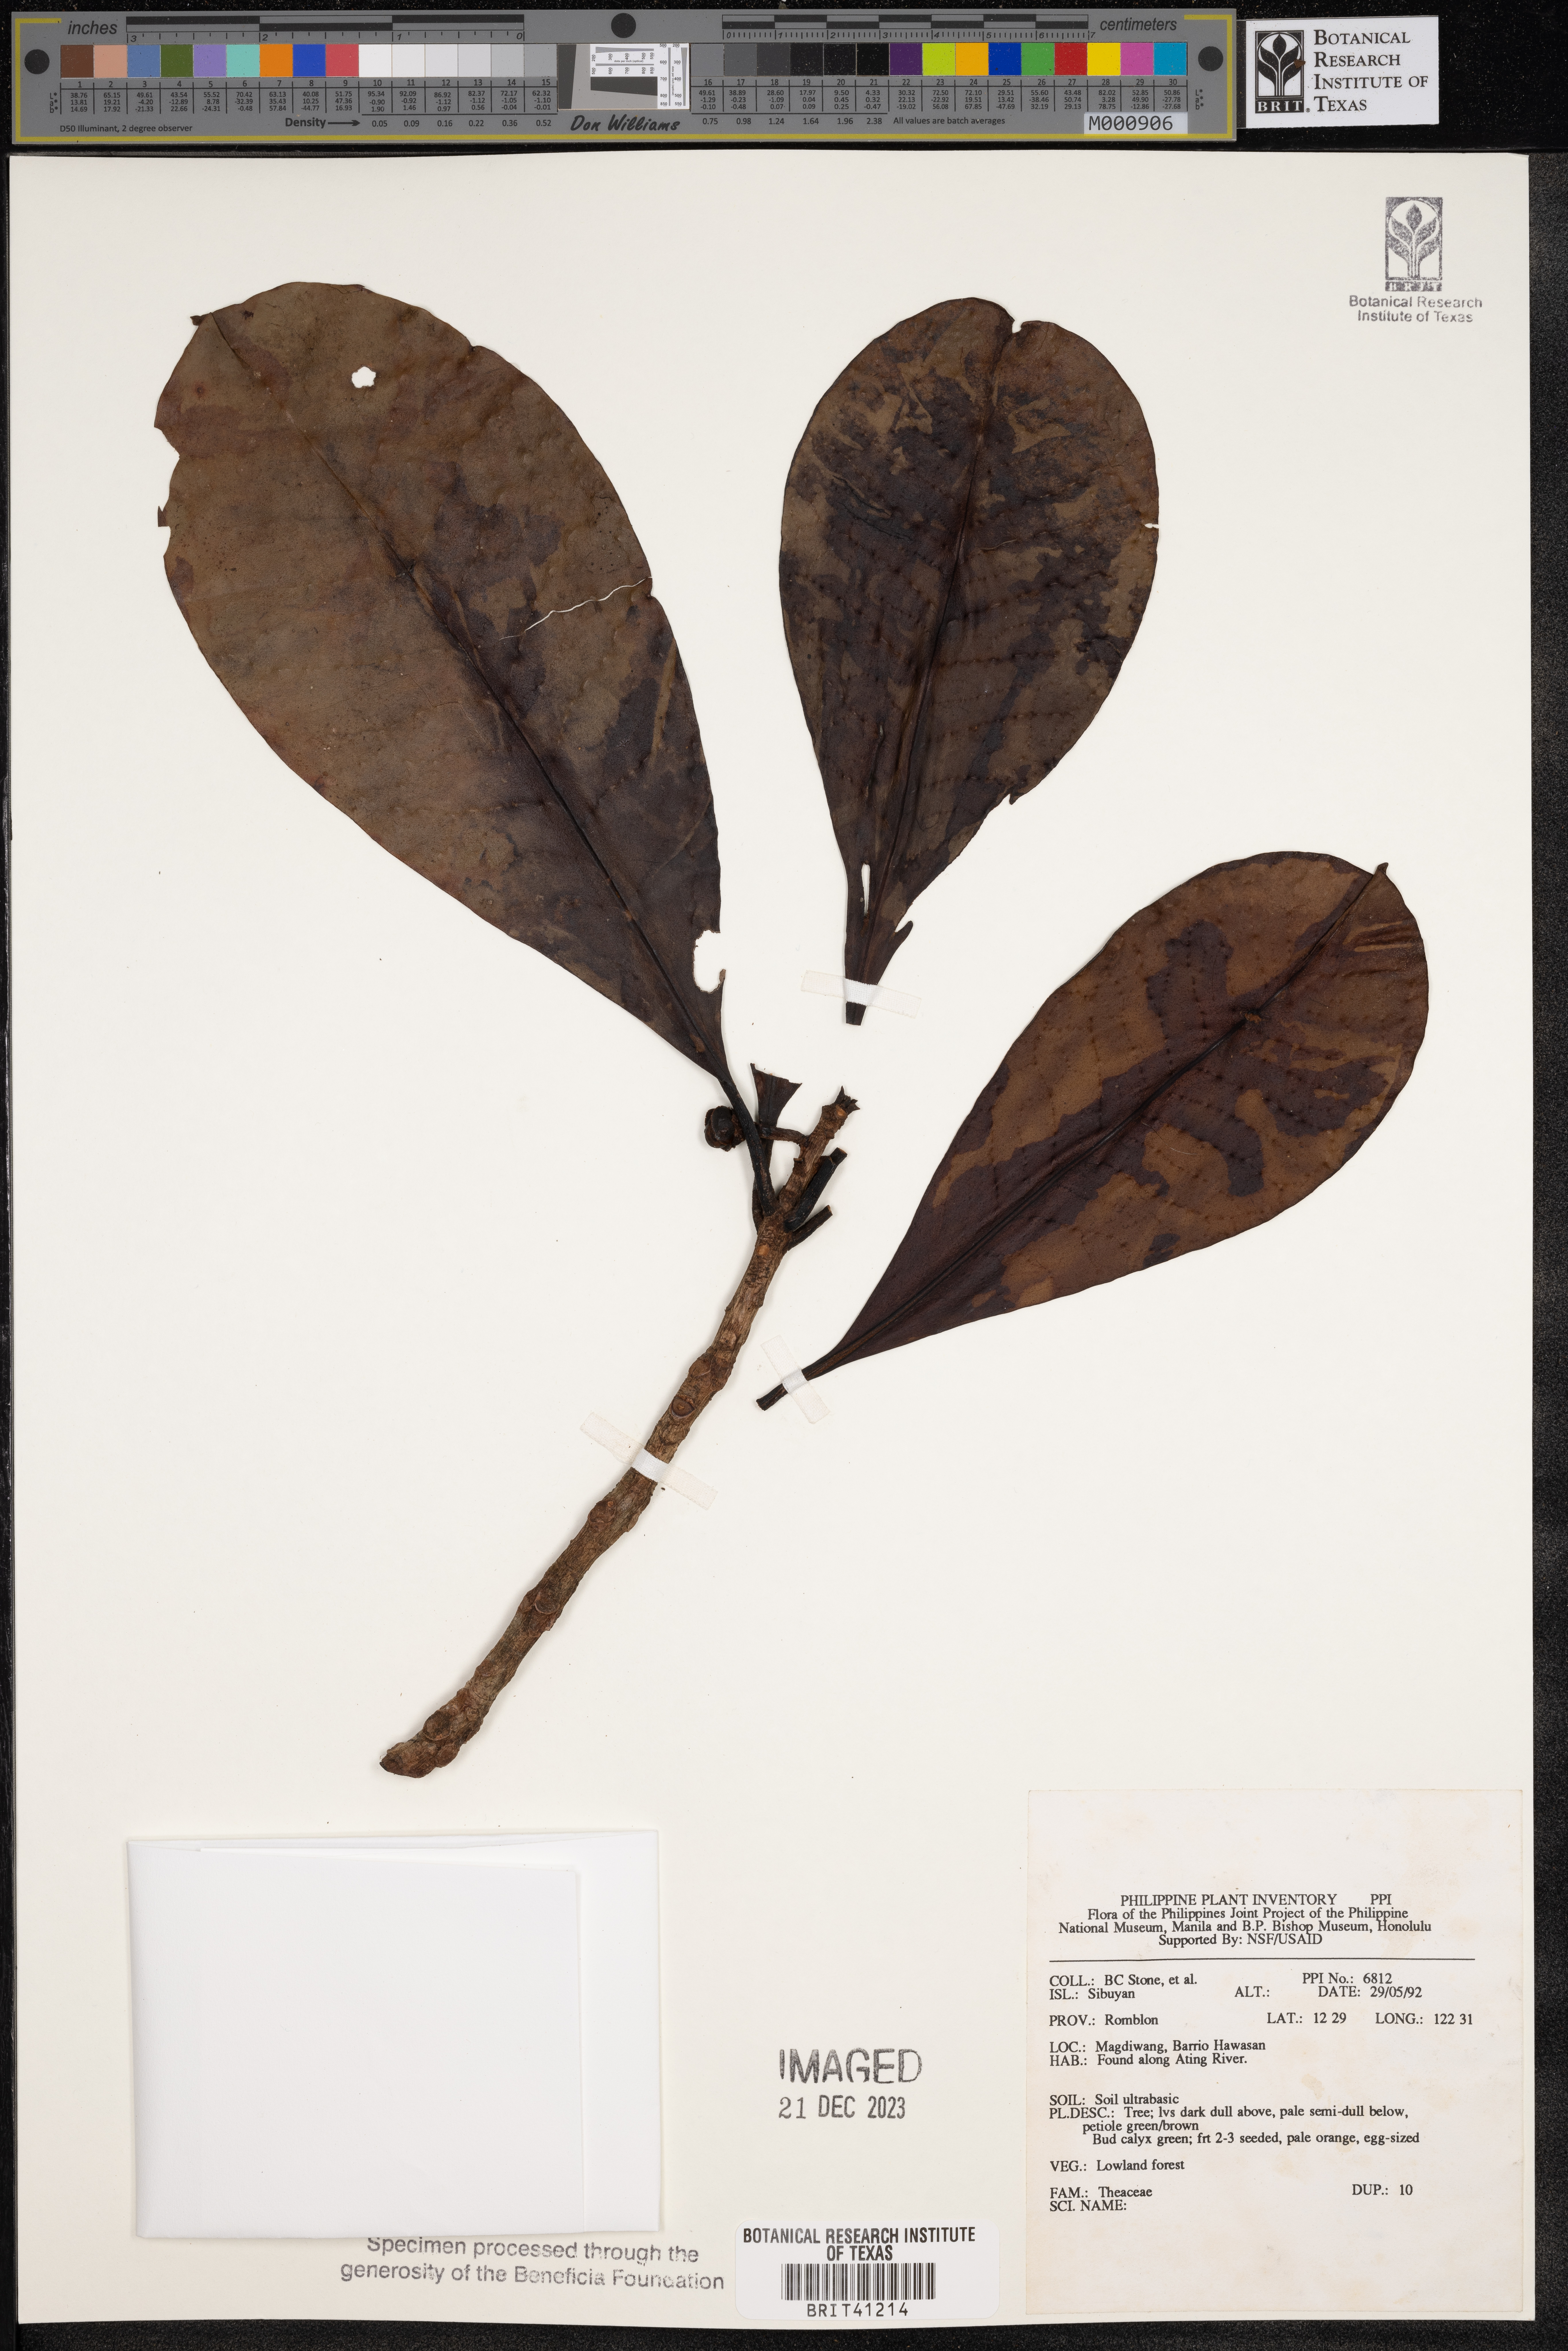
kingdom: Plantae
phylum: Tracheophyta
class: Magnoliopsida
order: Ericales
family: Theaceae
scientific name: Theaceae
